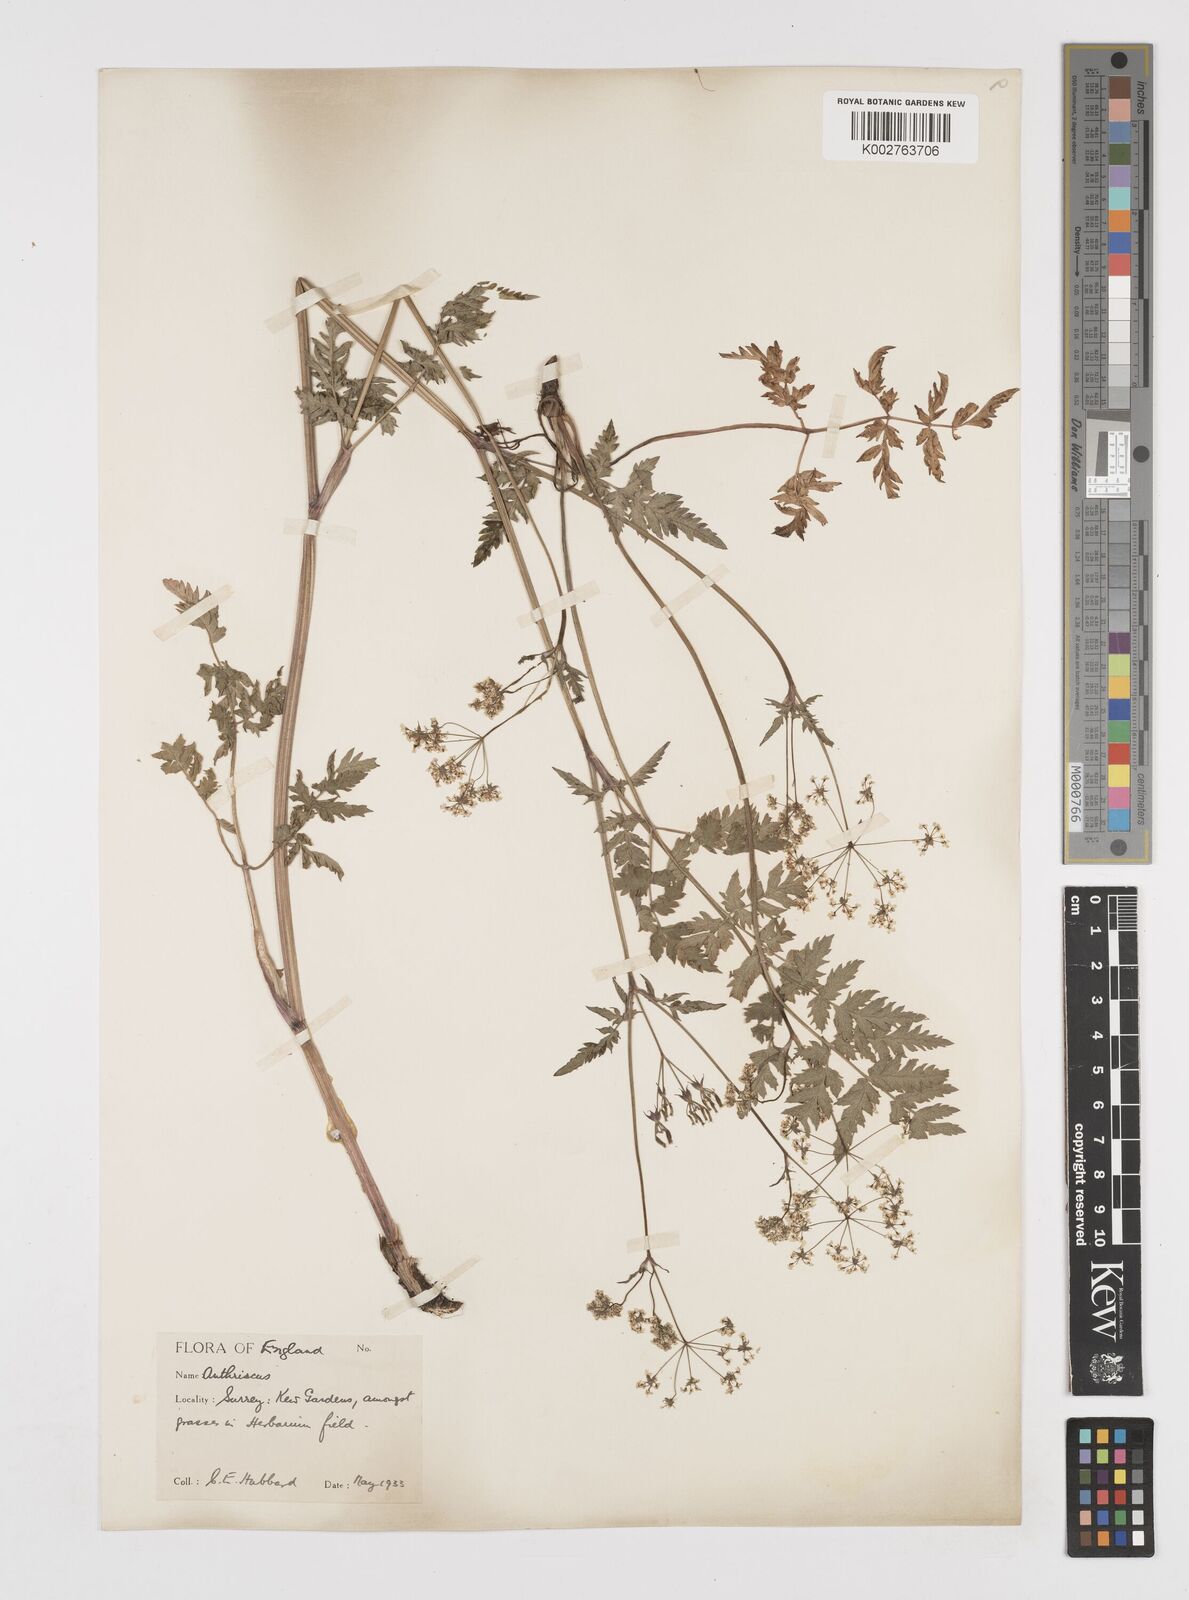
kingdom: Plantae
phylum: Tracheophyta
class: Magnoliopsida
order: Apiales
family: Apiaceae
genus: Anthriscus
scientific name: Anthriscus sylvestris
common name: Cow parsley
